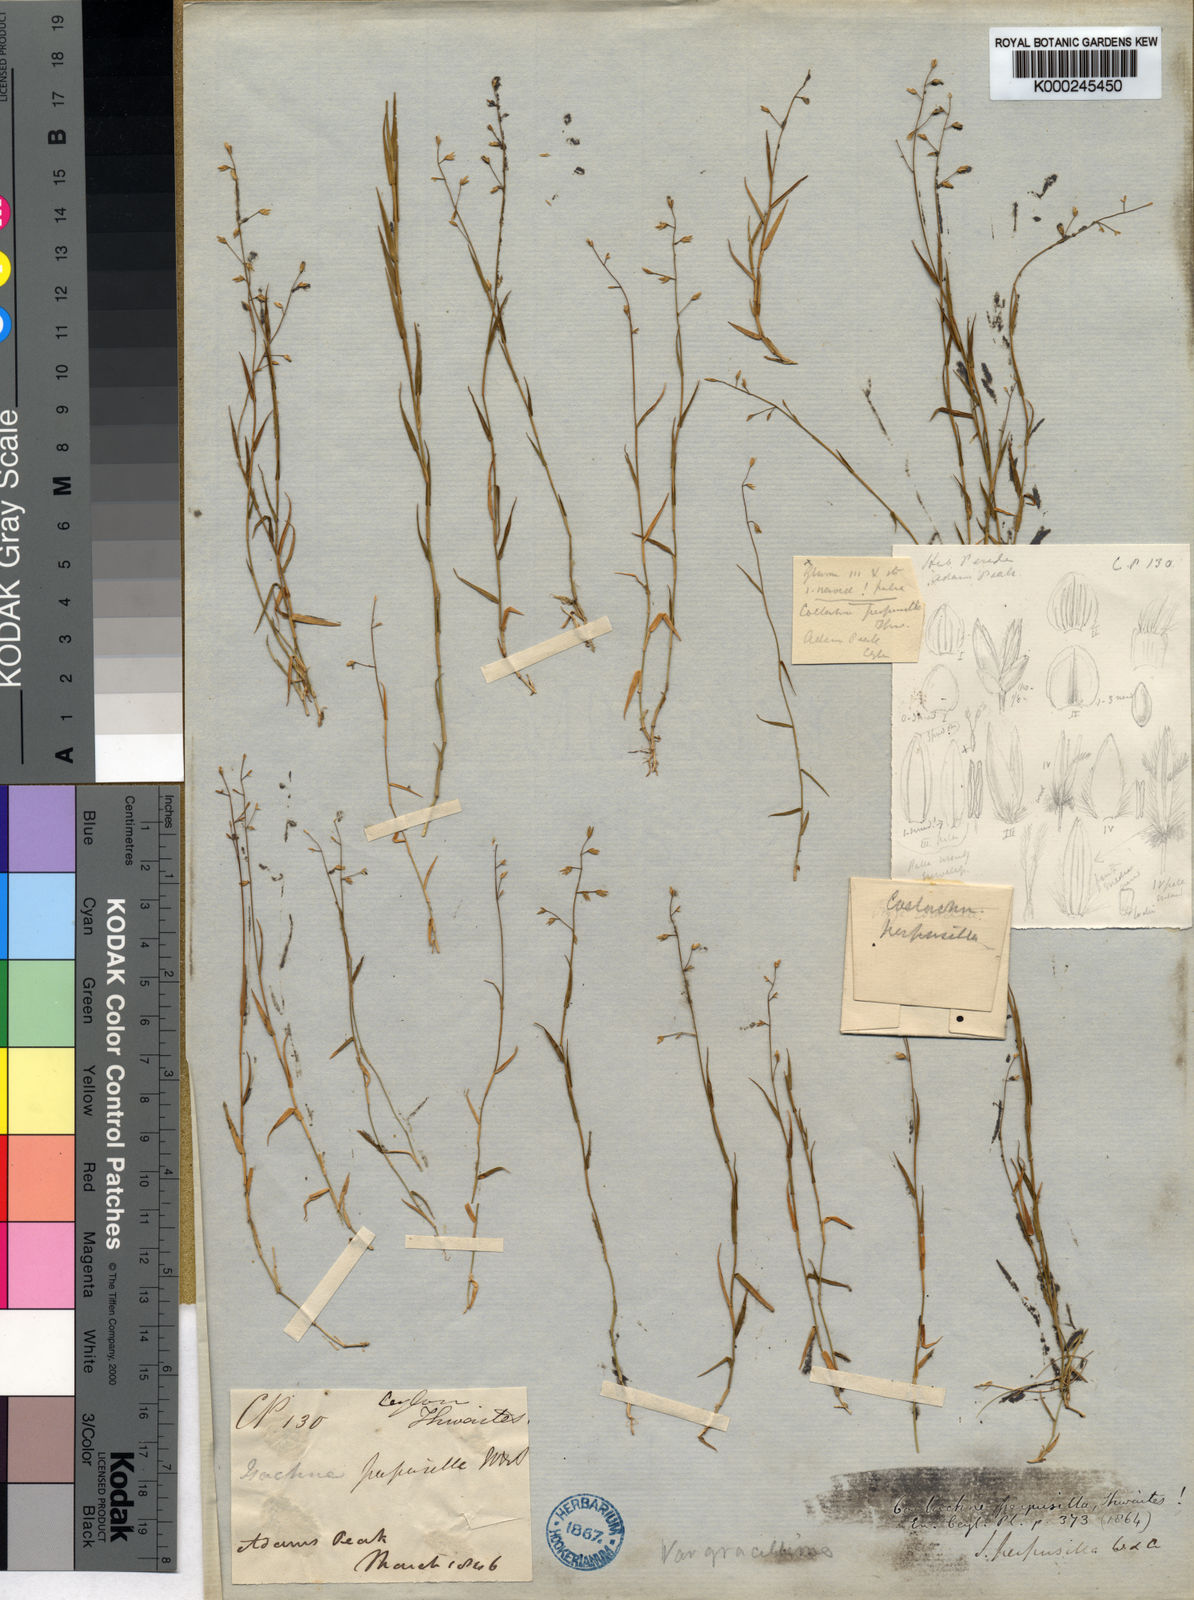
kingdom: Plantae
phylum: Tracheophyta
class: Liliopsida
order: Poales
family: Poaceae
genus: Coelachne
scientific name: Coelachne perpusilla
